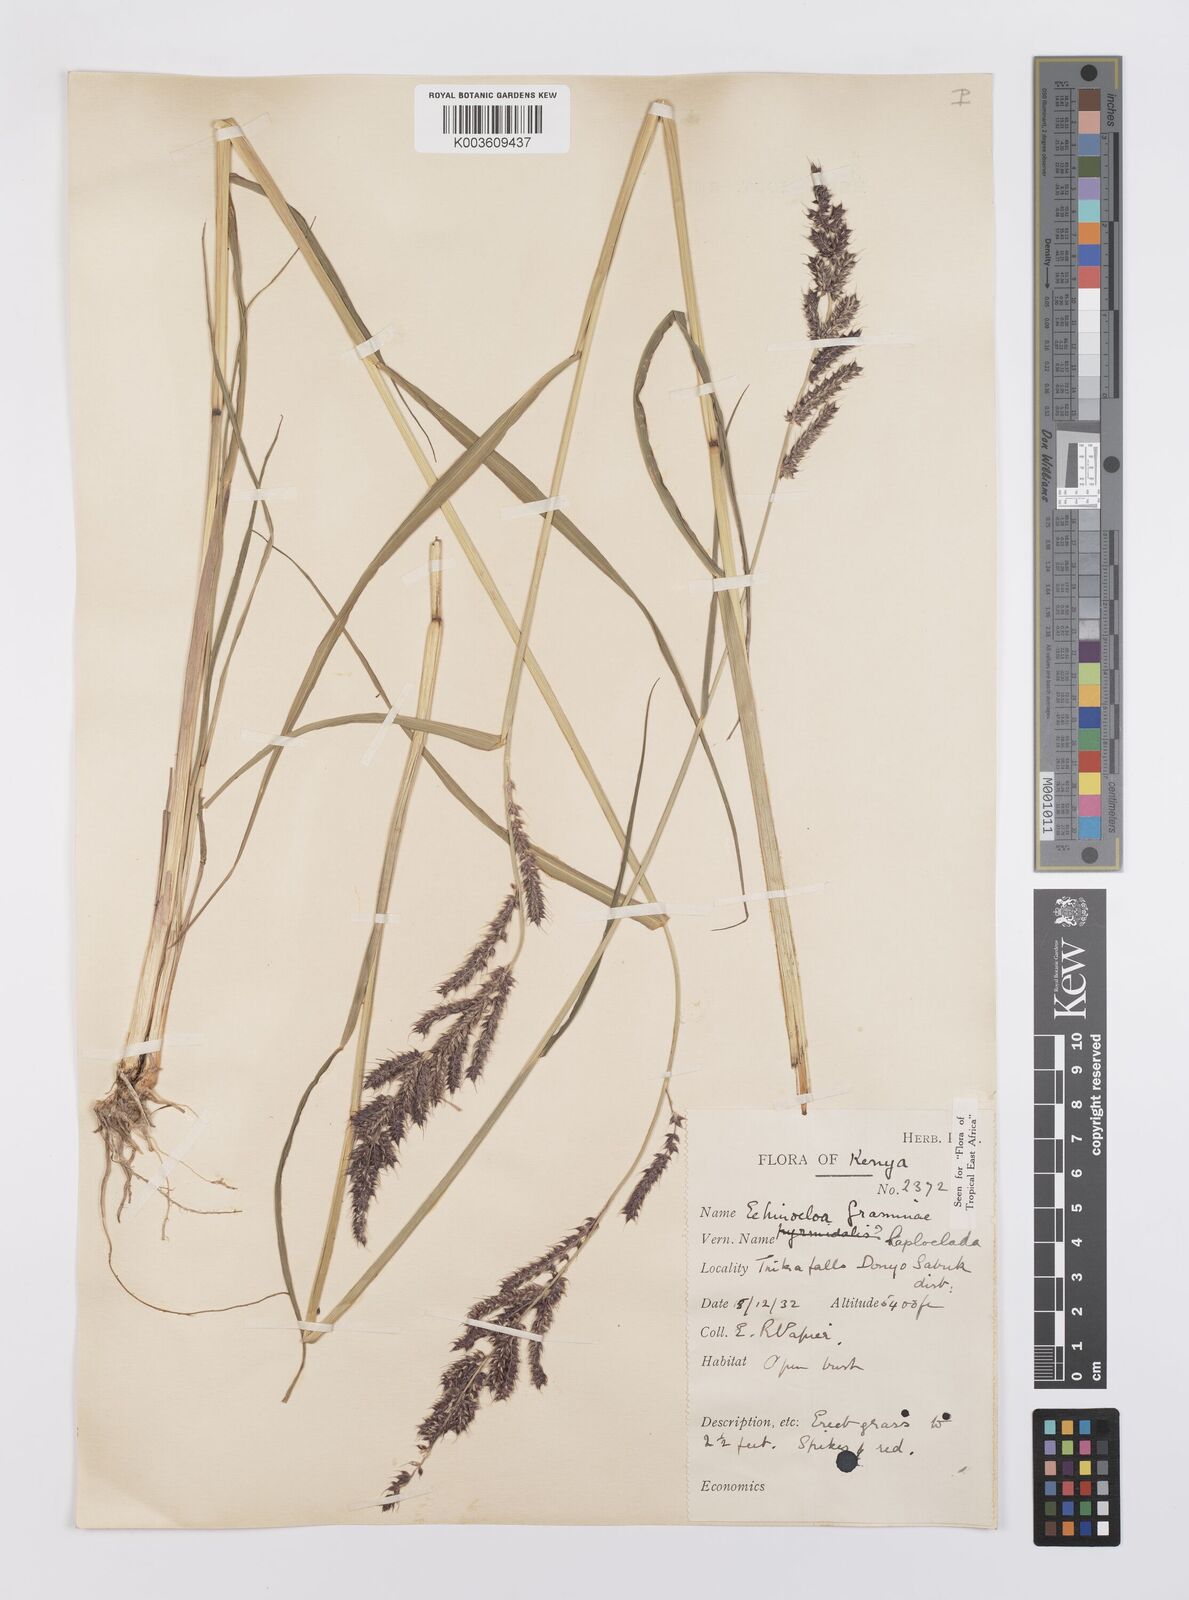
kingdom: Plantae
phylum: Tracheophyta
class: Liliopsida
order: Poales
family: Poaceae
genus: Echinochloa
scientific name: Echinochloa haploclada
